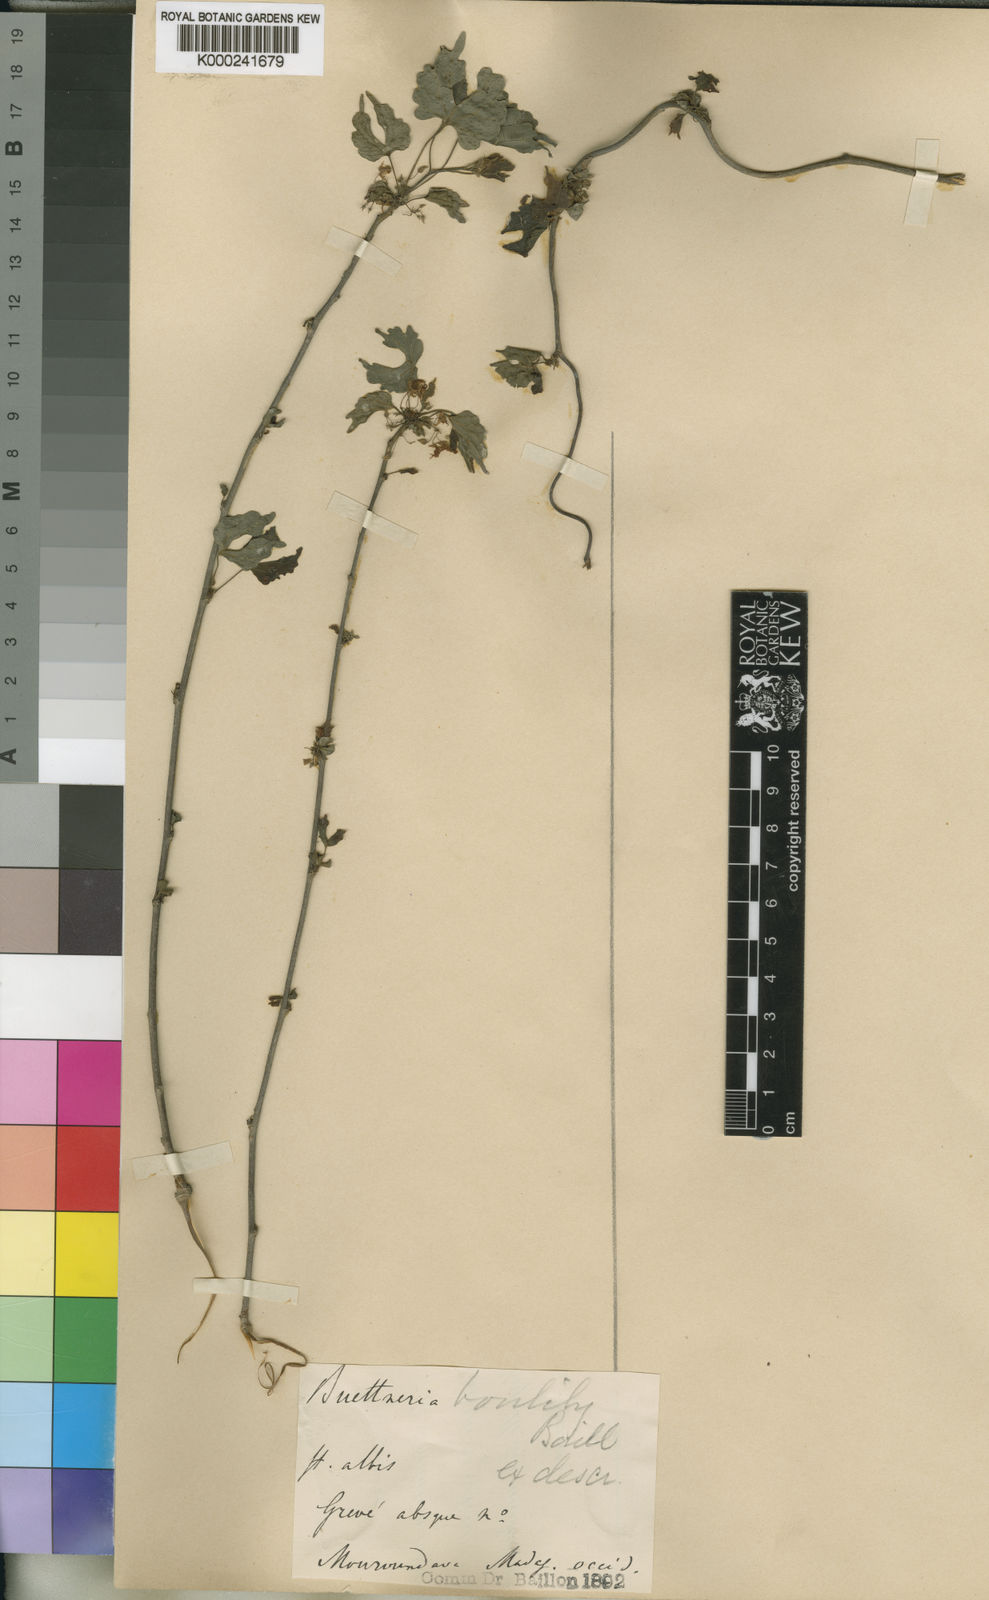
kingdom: Plantae
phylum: Tracheophyta
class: Magnoliopsida
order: Malvales
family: Malvaceae
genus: Byttneria
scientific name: Byttneria
